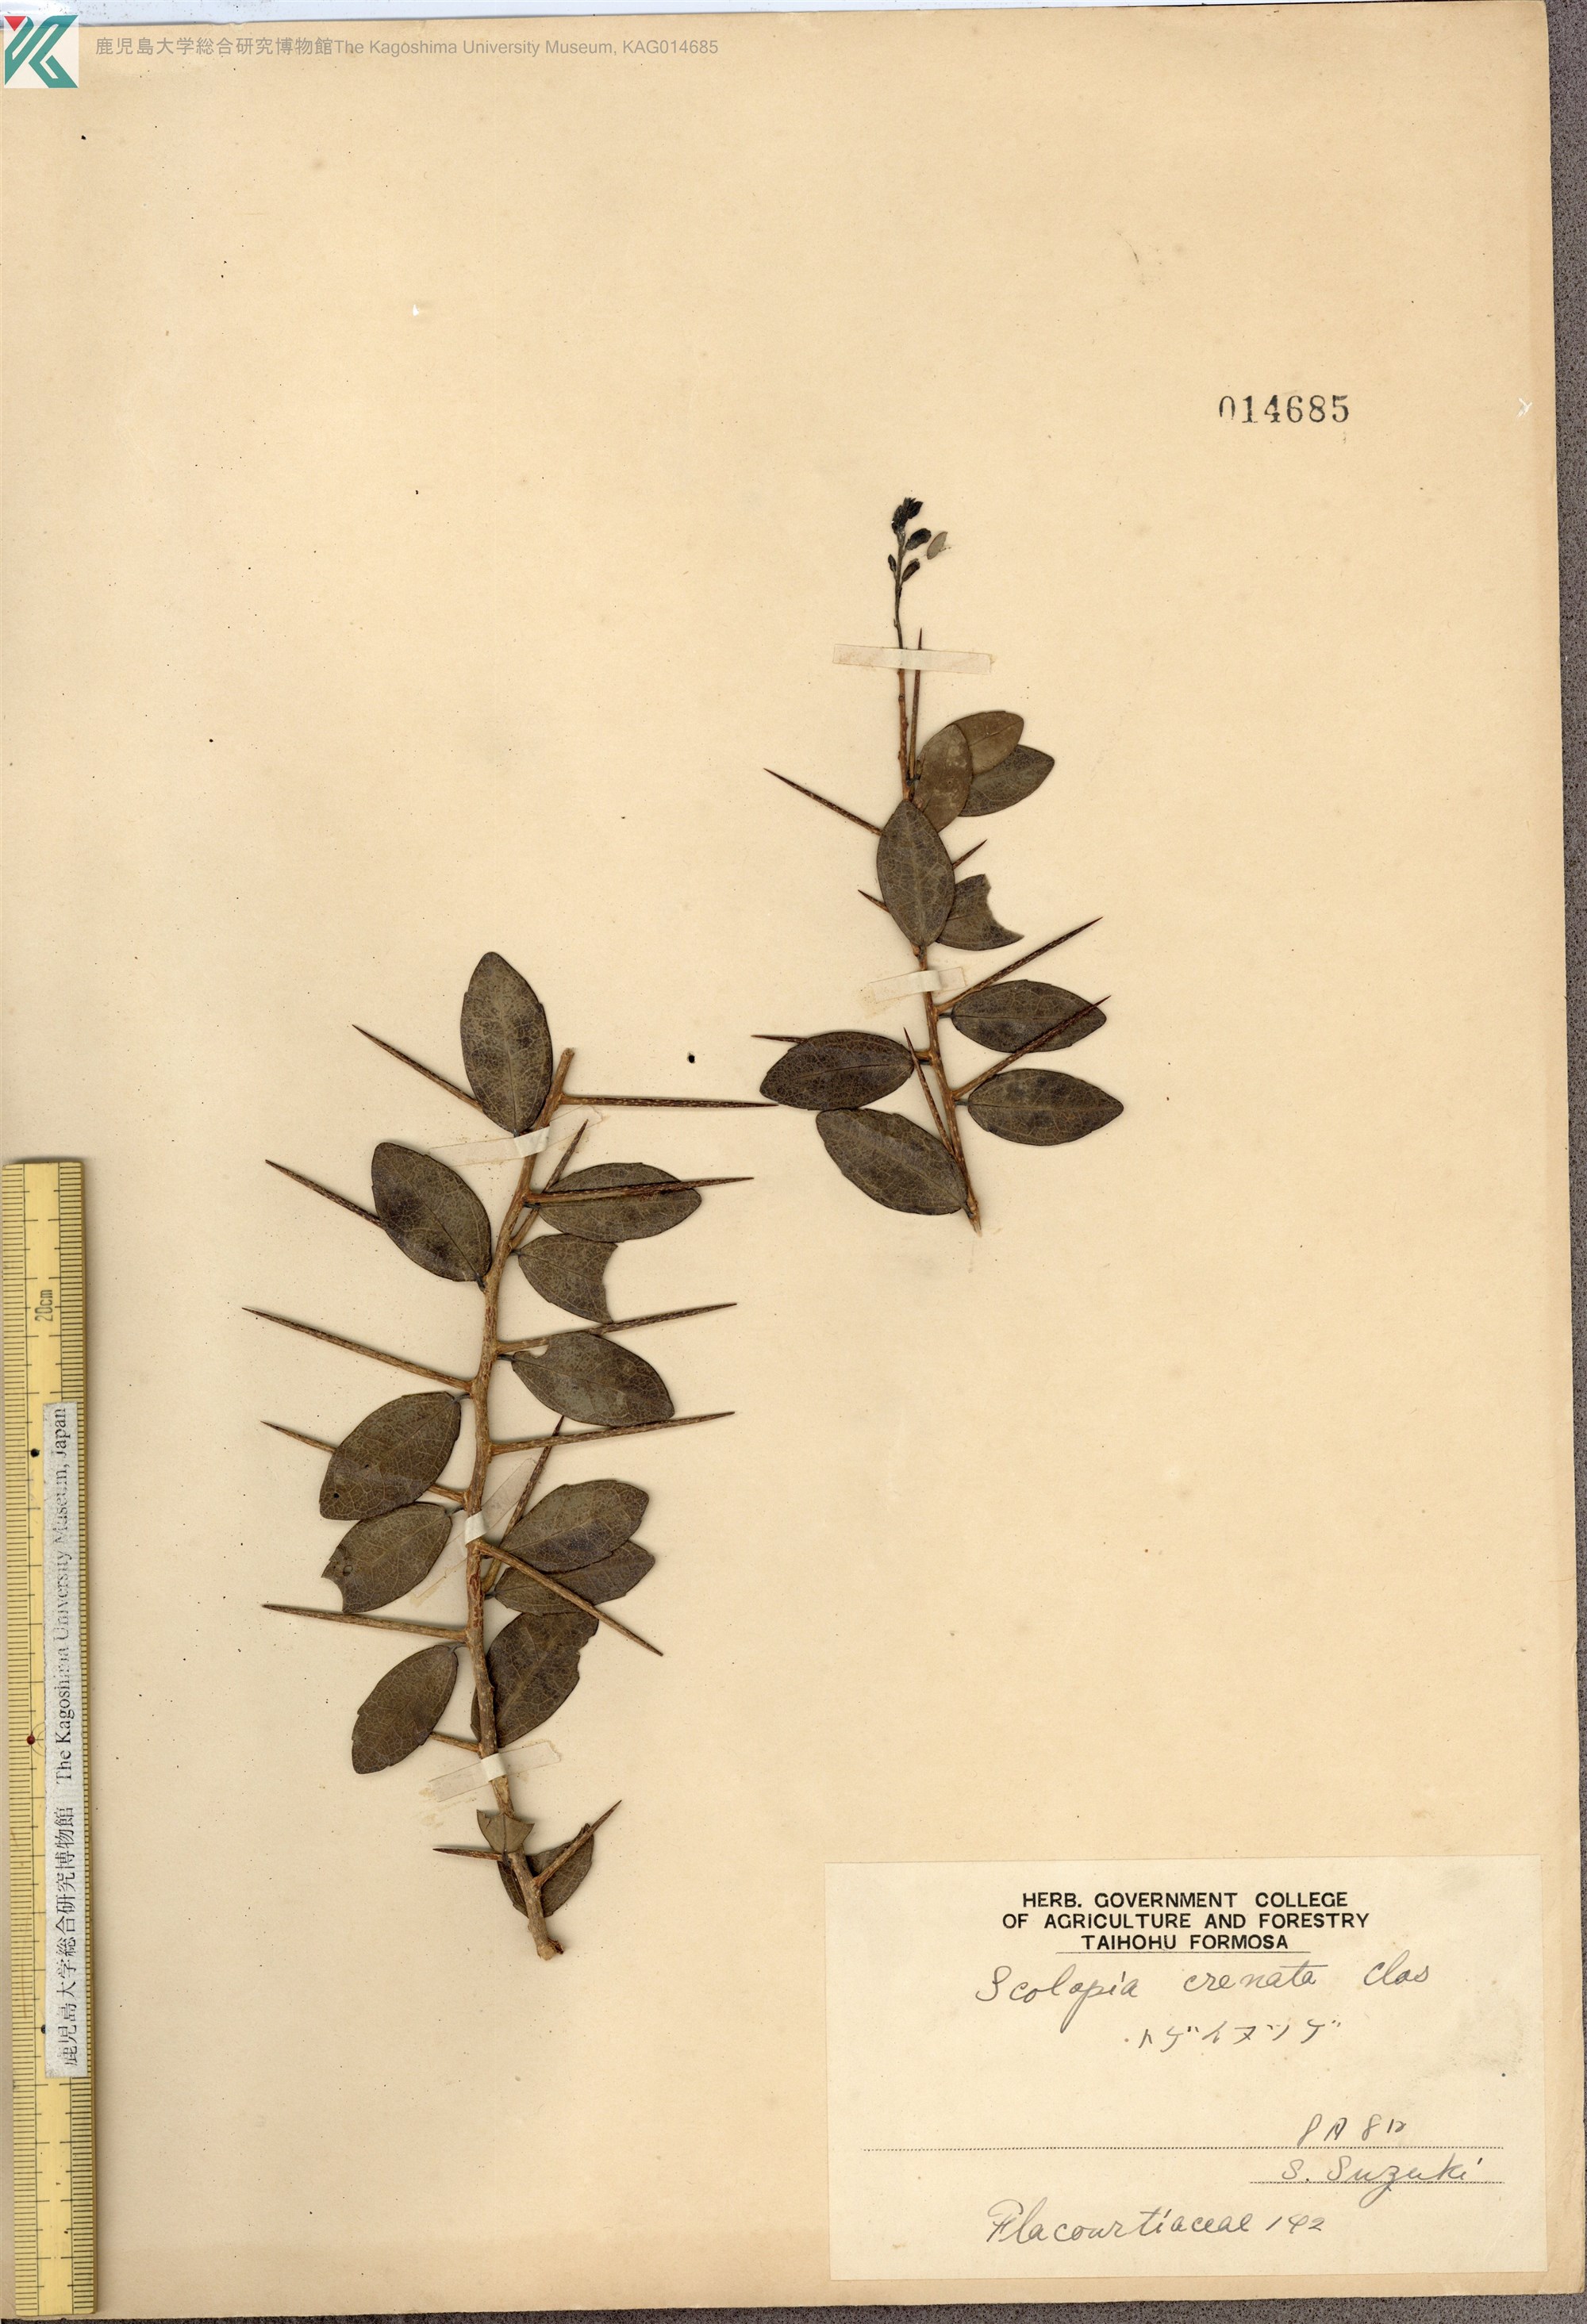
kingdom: Plantae
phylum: Tracheophyta
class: Magnoliopsida
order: Malpighiales
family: Salicaceae
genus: Scolopia
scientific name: Scolopia oldhamii
